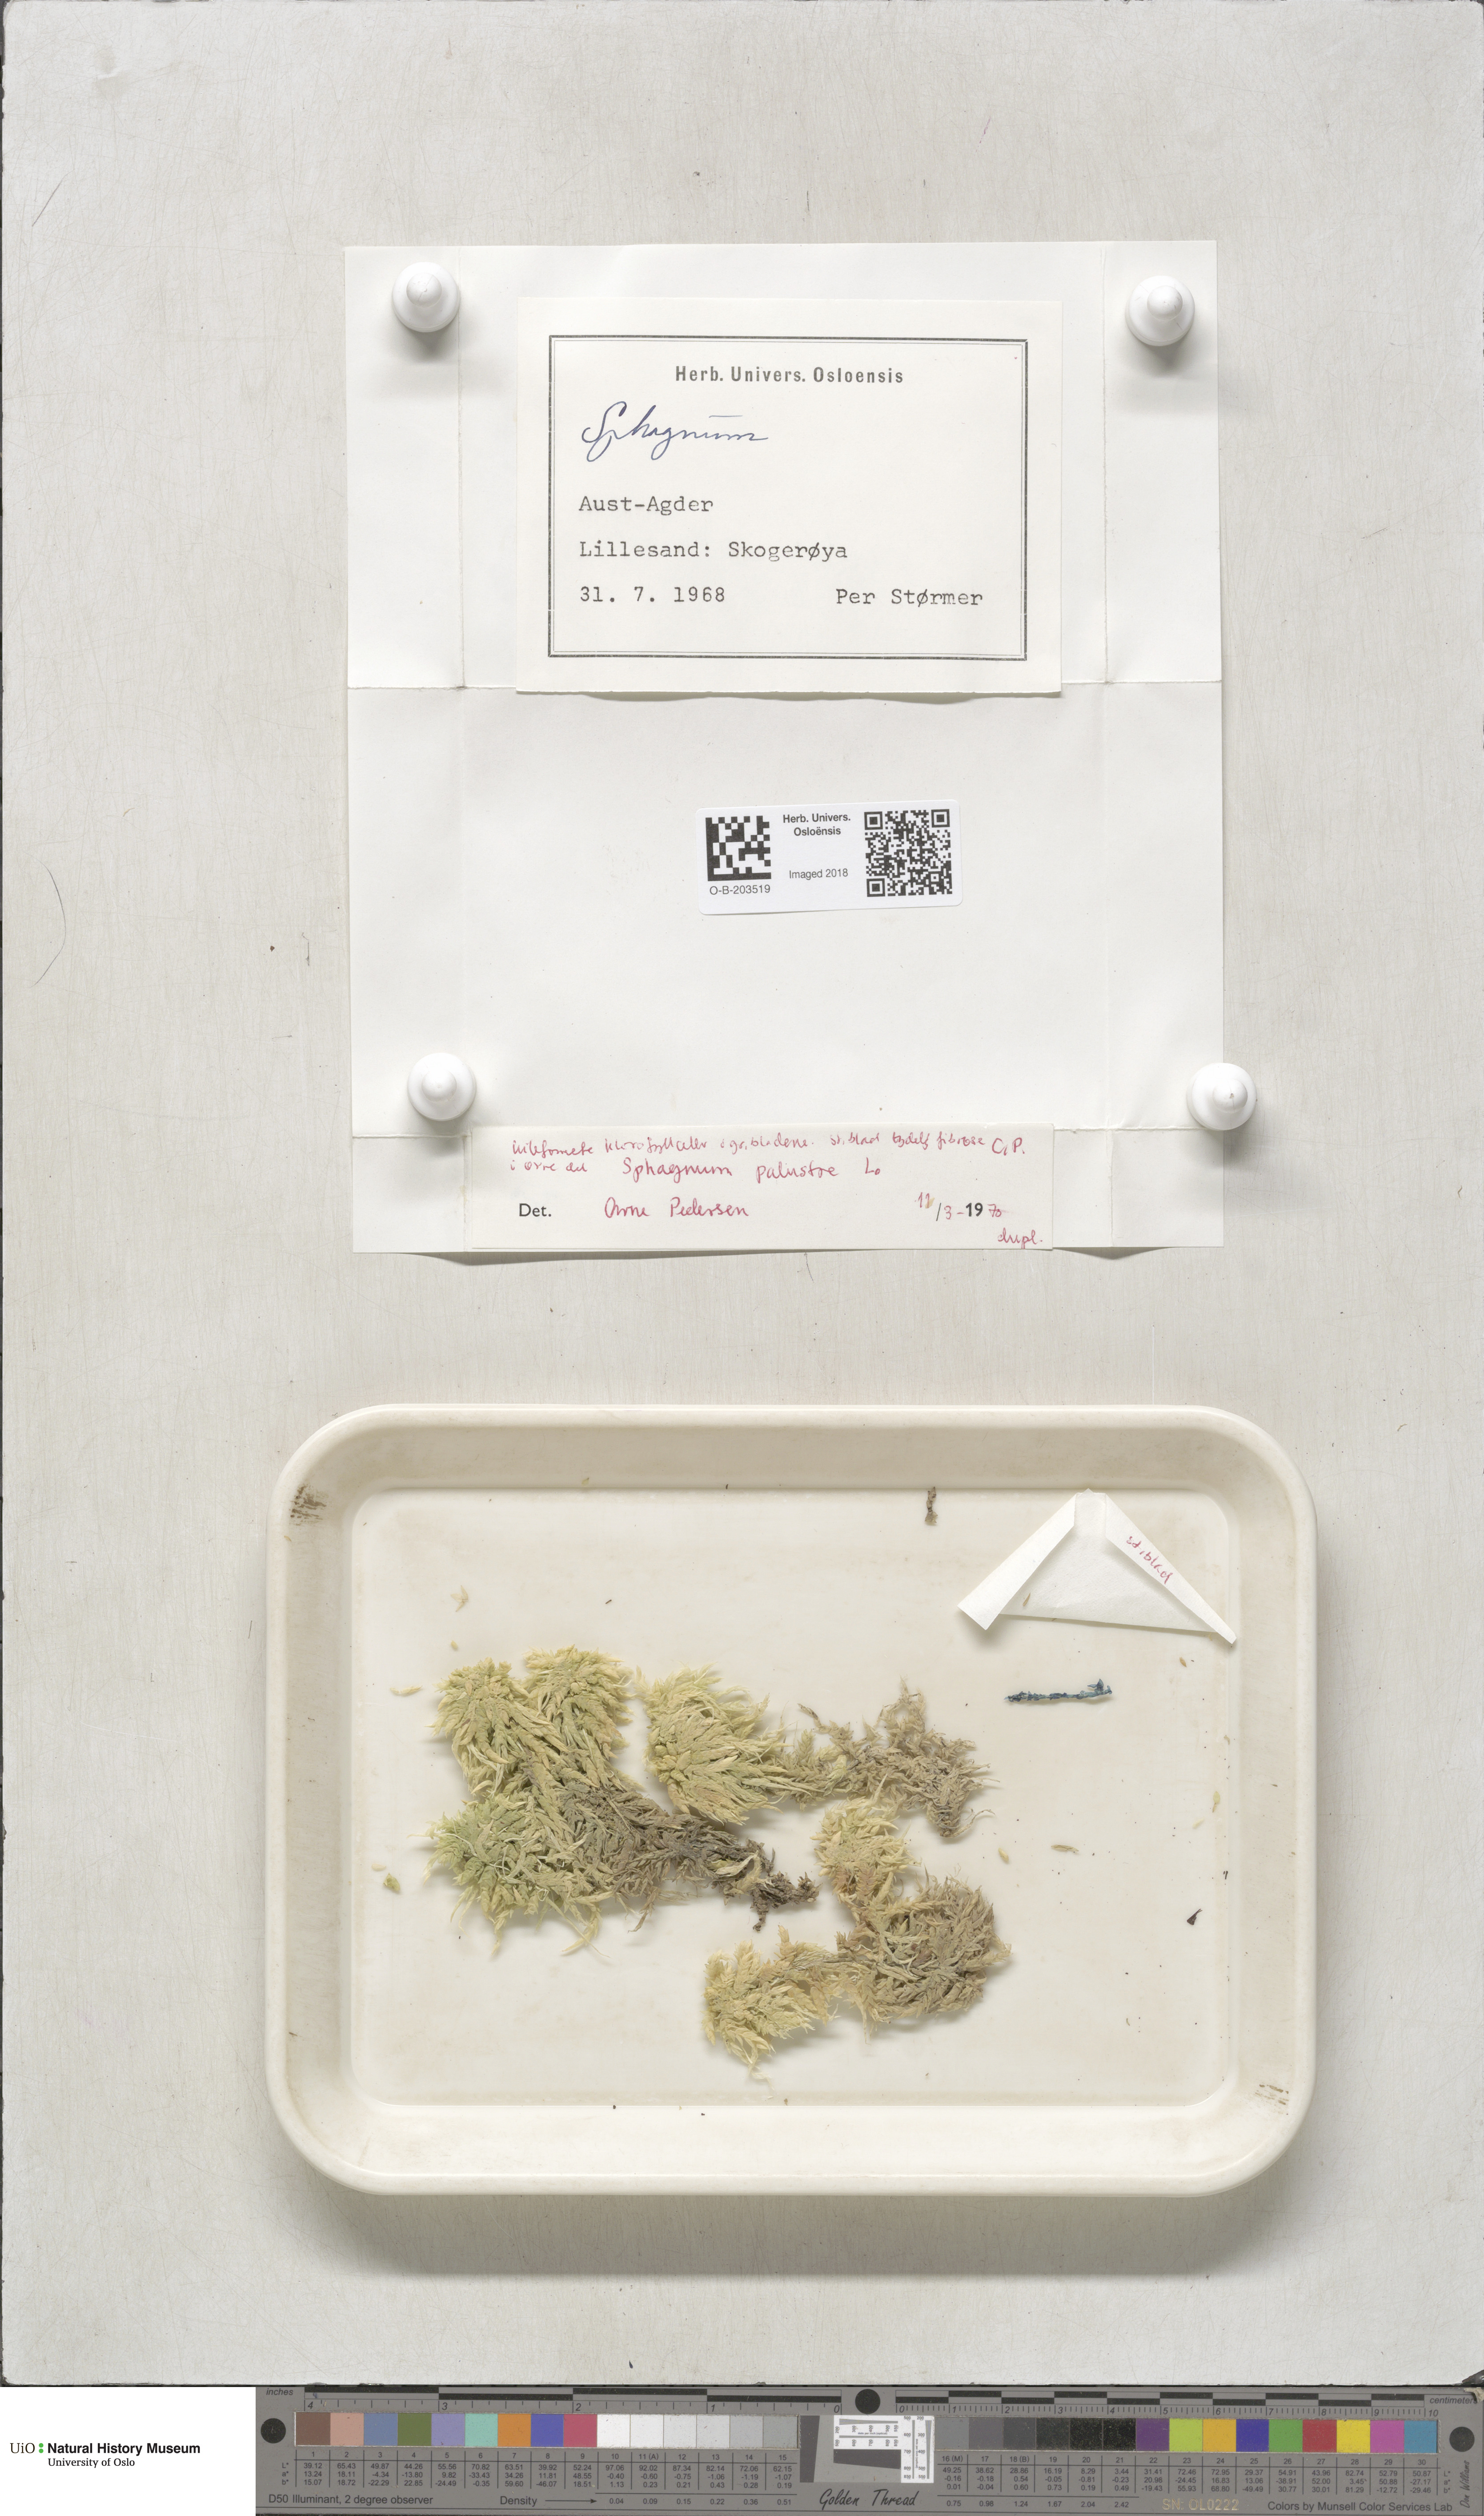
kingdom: Plantae
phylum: Bryophyta
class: Sphagnopsida
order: Sphagnales
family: Sphagnaceae
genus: Sphagnum
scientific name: Sphagnum palustre
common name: Blunt-leaved bog-moss
